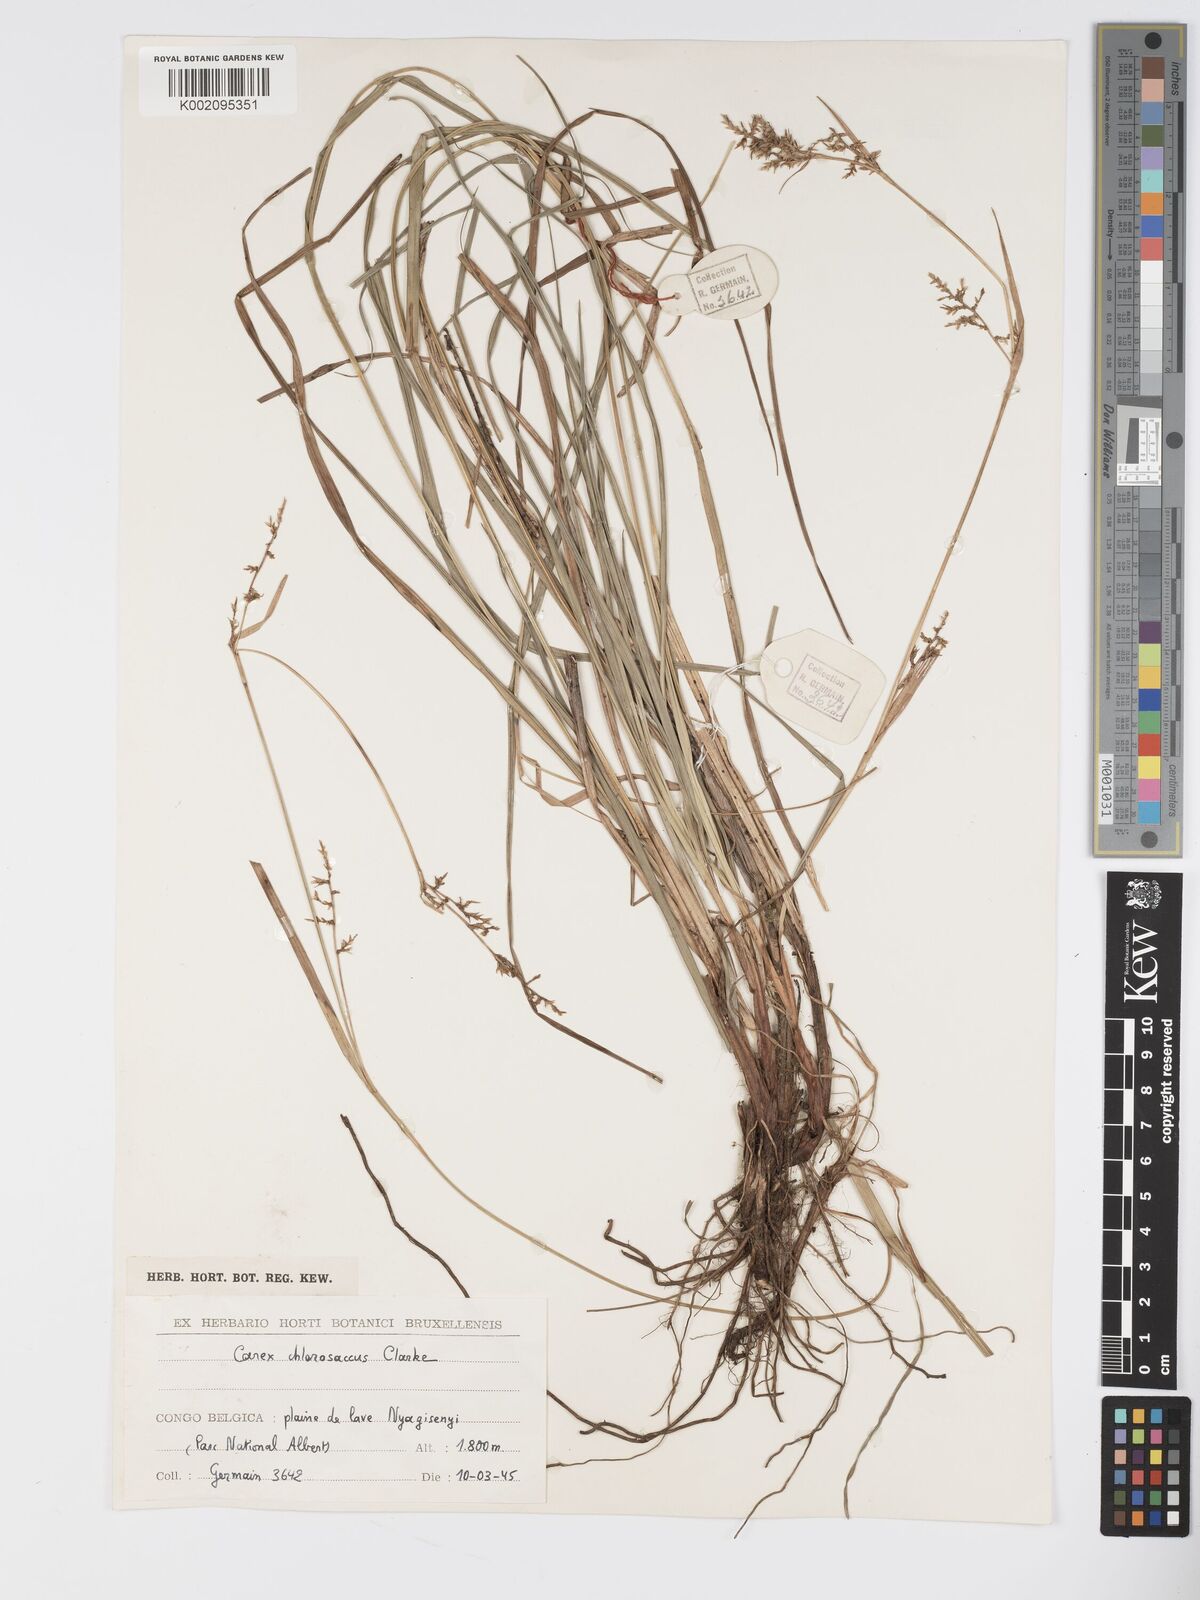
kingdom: Plantae
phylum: Tracheophyta
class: Liliopsida
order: Poales
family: Cyperaceae
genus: Carex
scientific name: Carex chlorosaccus
